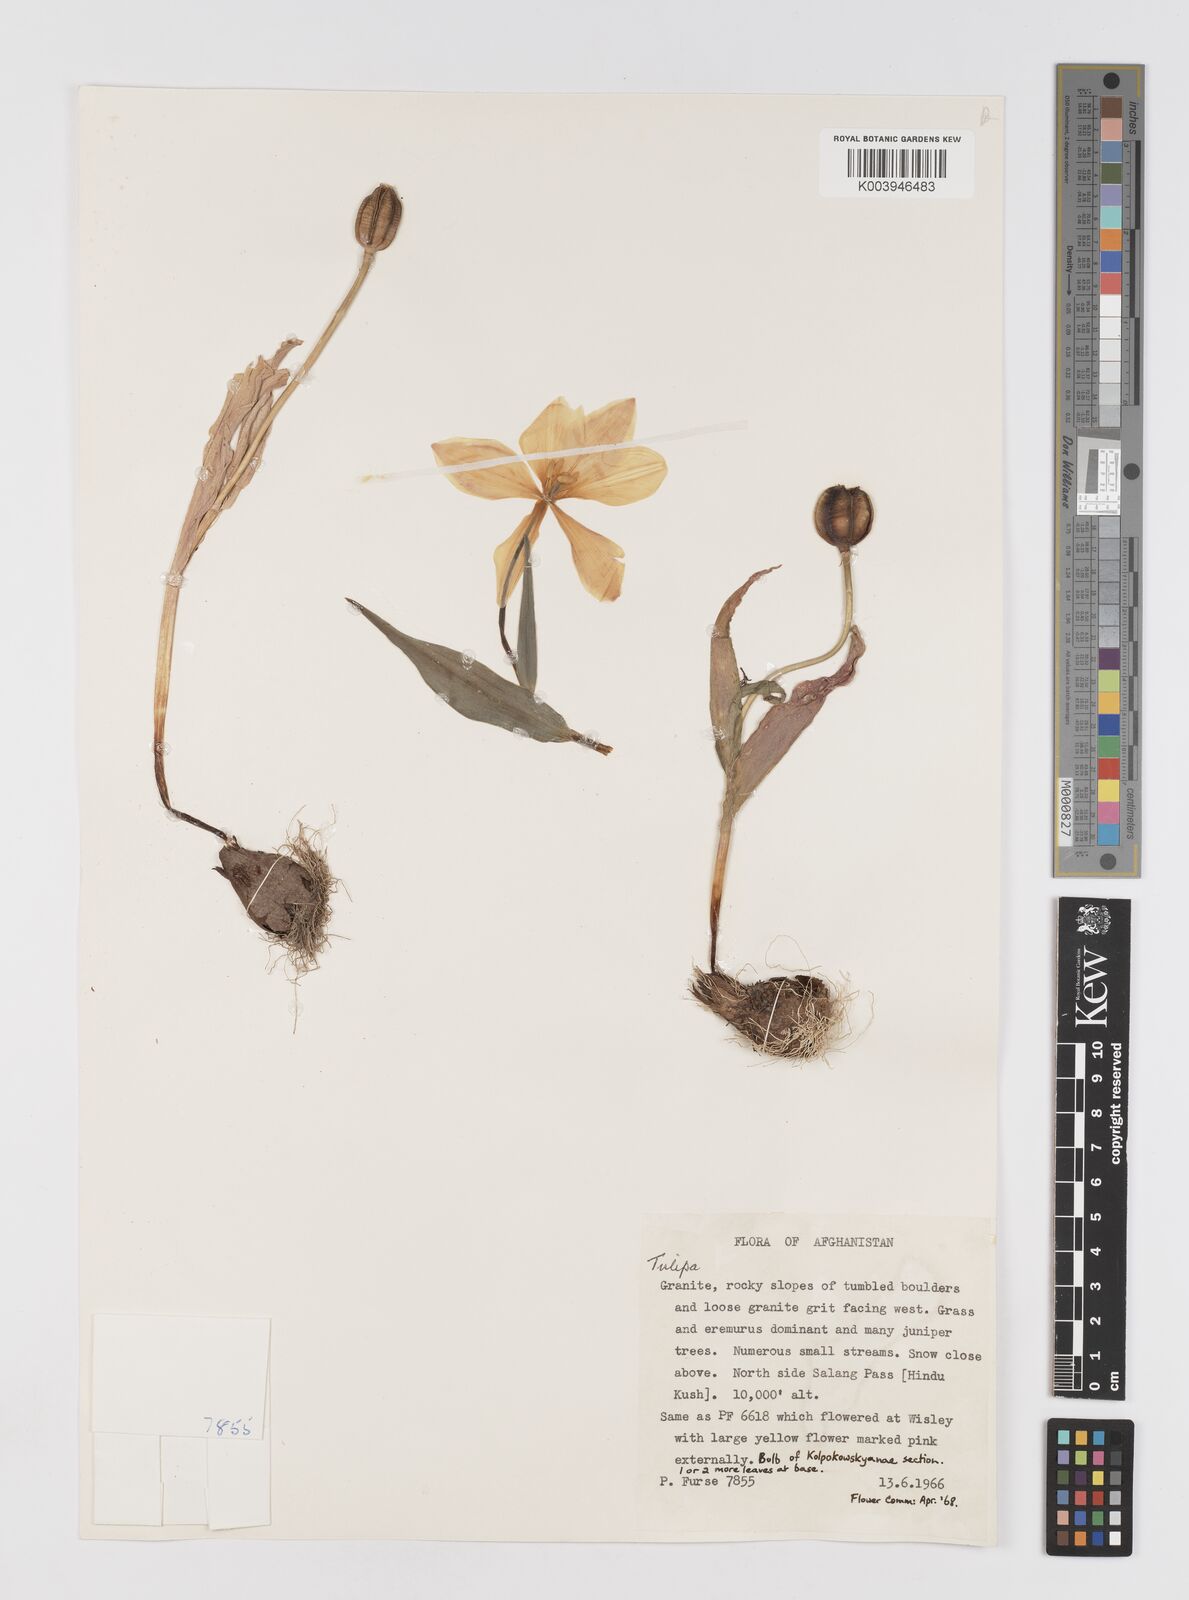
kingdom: Plantae
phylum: Tracheophyta
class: Liliopsida
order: Liliales
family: Liliaceae
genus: Tulipa
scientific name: Tulipa
